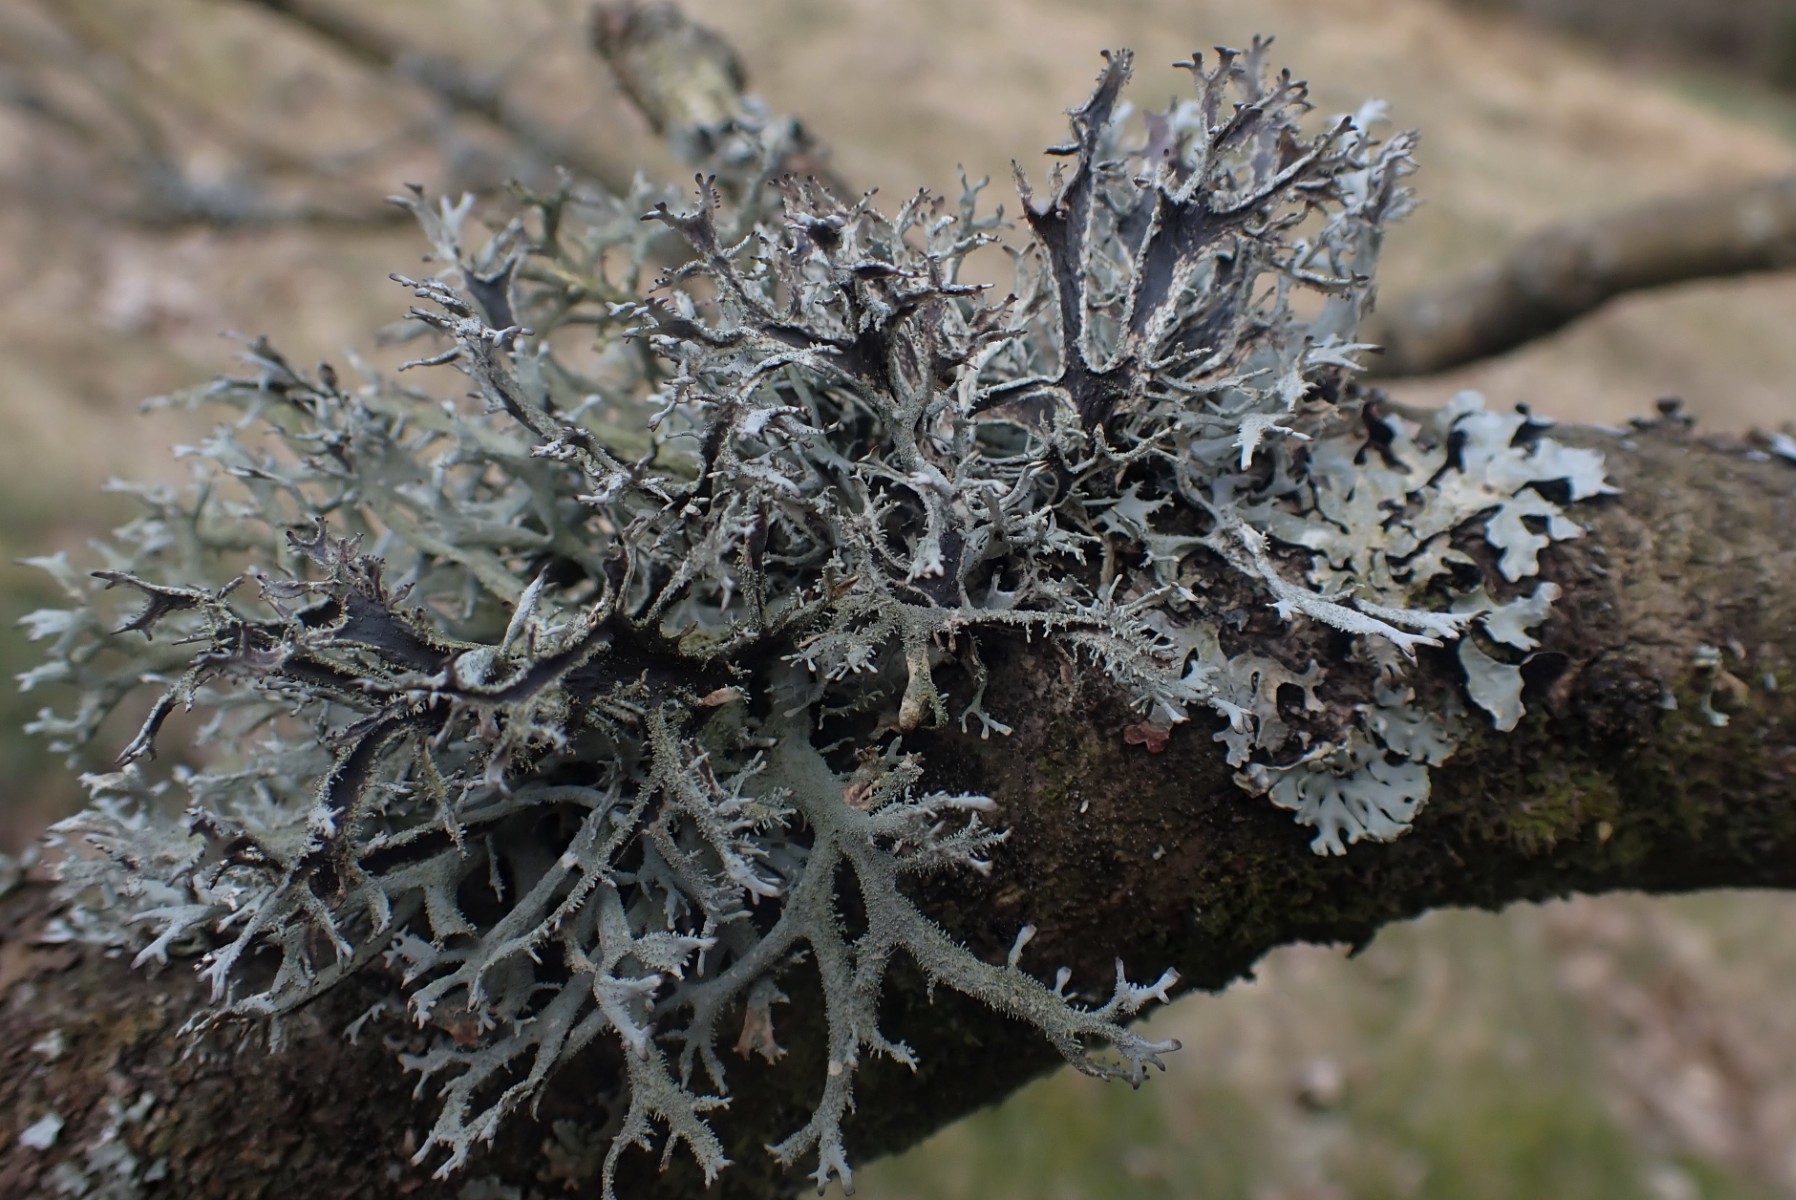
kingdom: Fungi
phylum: Ascomycota
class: Lecanoromycetes
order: Lecanorales
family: Parmeliaceae
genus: Pseudevernia
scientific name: Pseudevernia furfuracea
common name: grå fyrrelav
